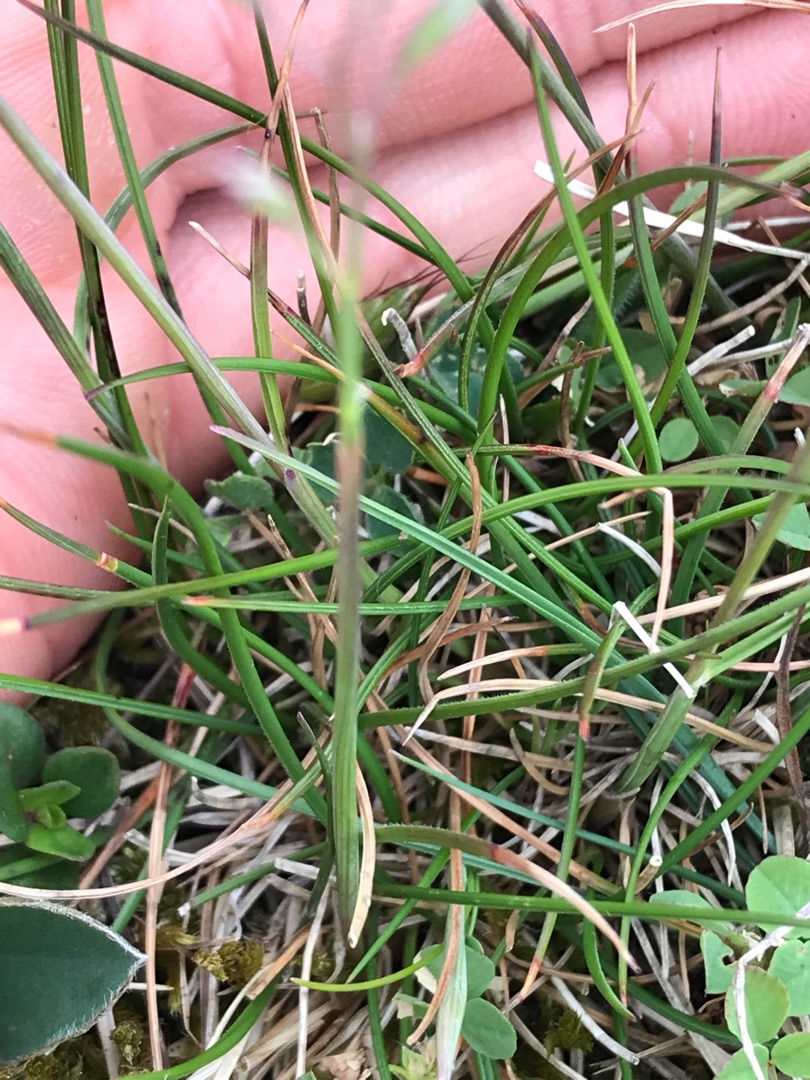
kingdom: Plantae
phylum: Tracheophyta
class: Liliopsida
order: Poales
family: Poaceae
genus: Festuca
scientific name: Festuca trachyphylla
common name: Bakke-svingel
